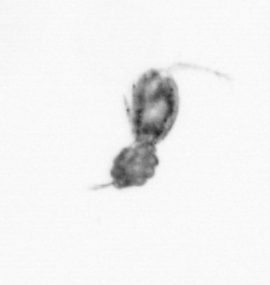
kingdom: Animalia
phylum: Arthropoda
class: Copepoda
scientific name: Copepoda
